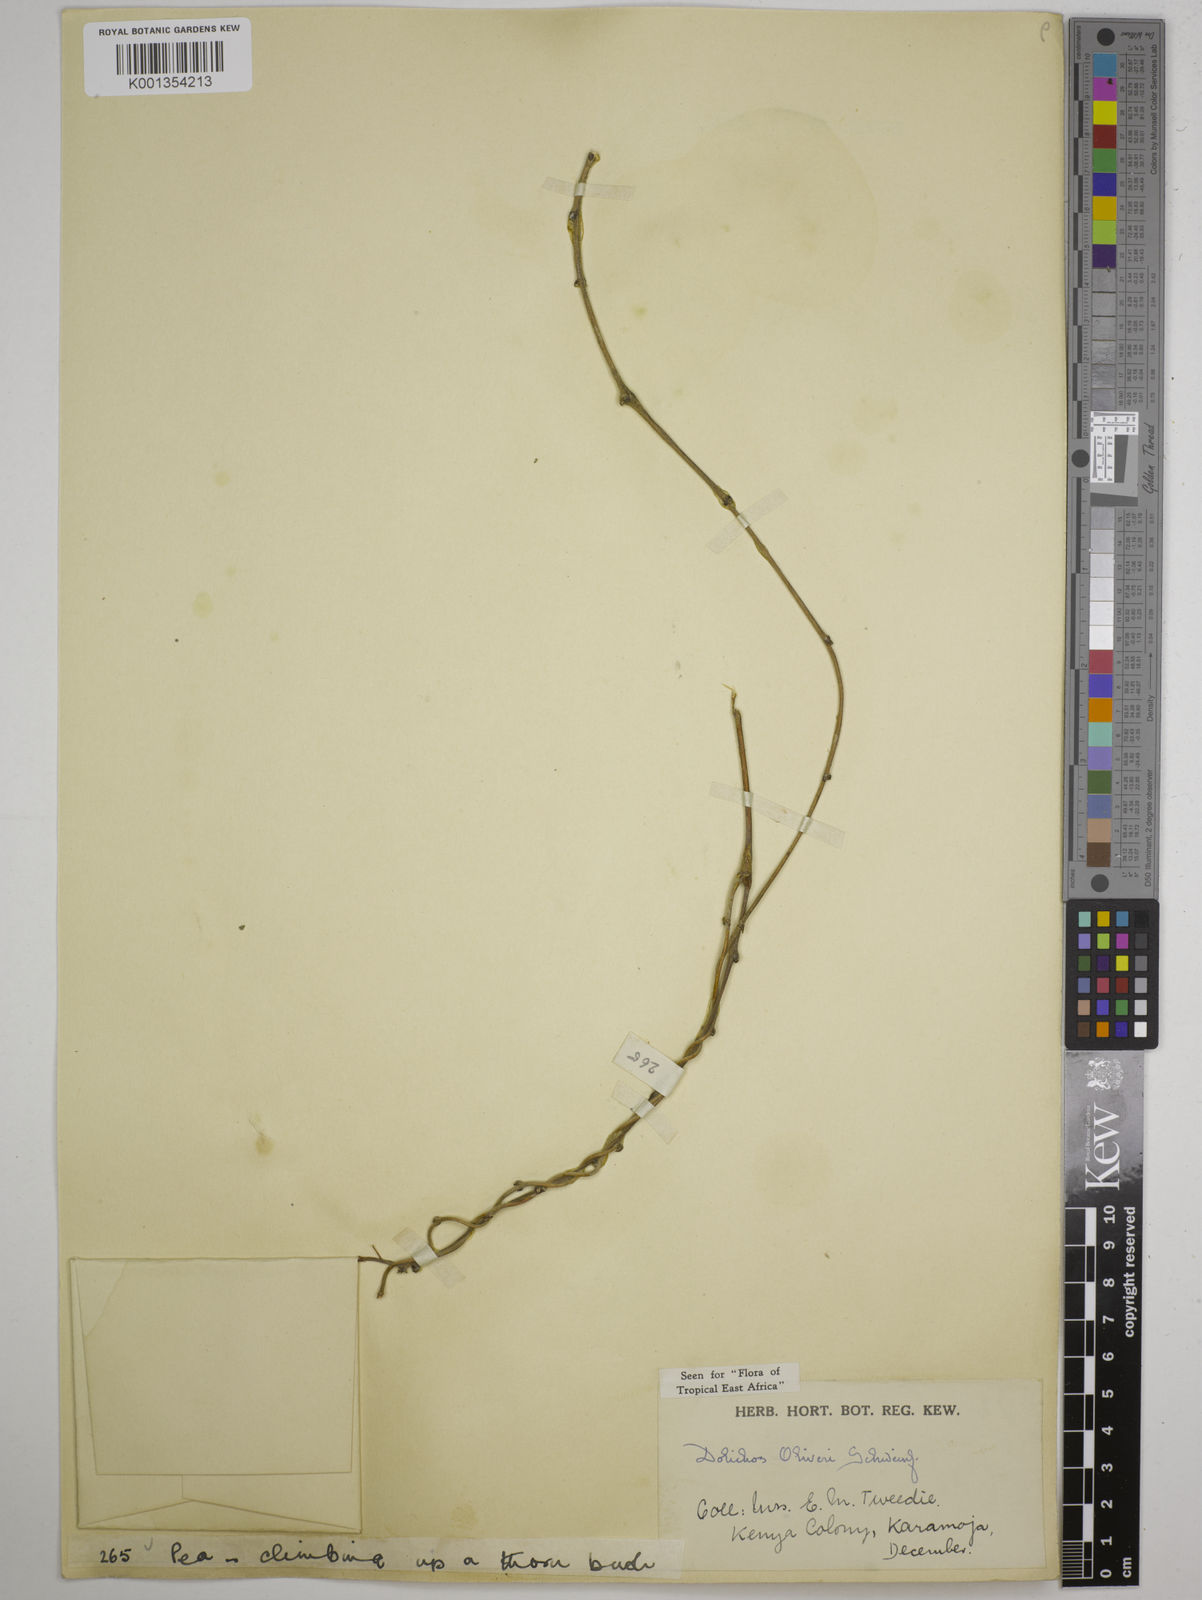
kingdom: Plantae
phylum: Tracheophyta
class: Magnoliopsida
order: Fabales
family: Fabaceae
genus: Dolichos
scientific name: Dolichos
